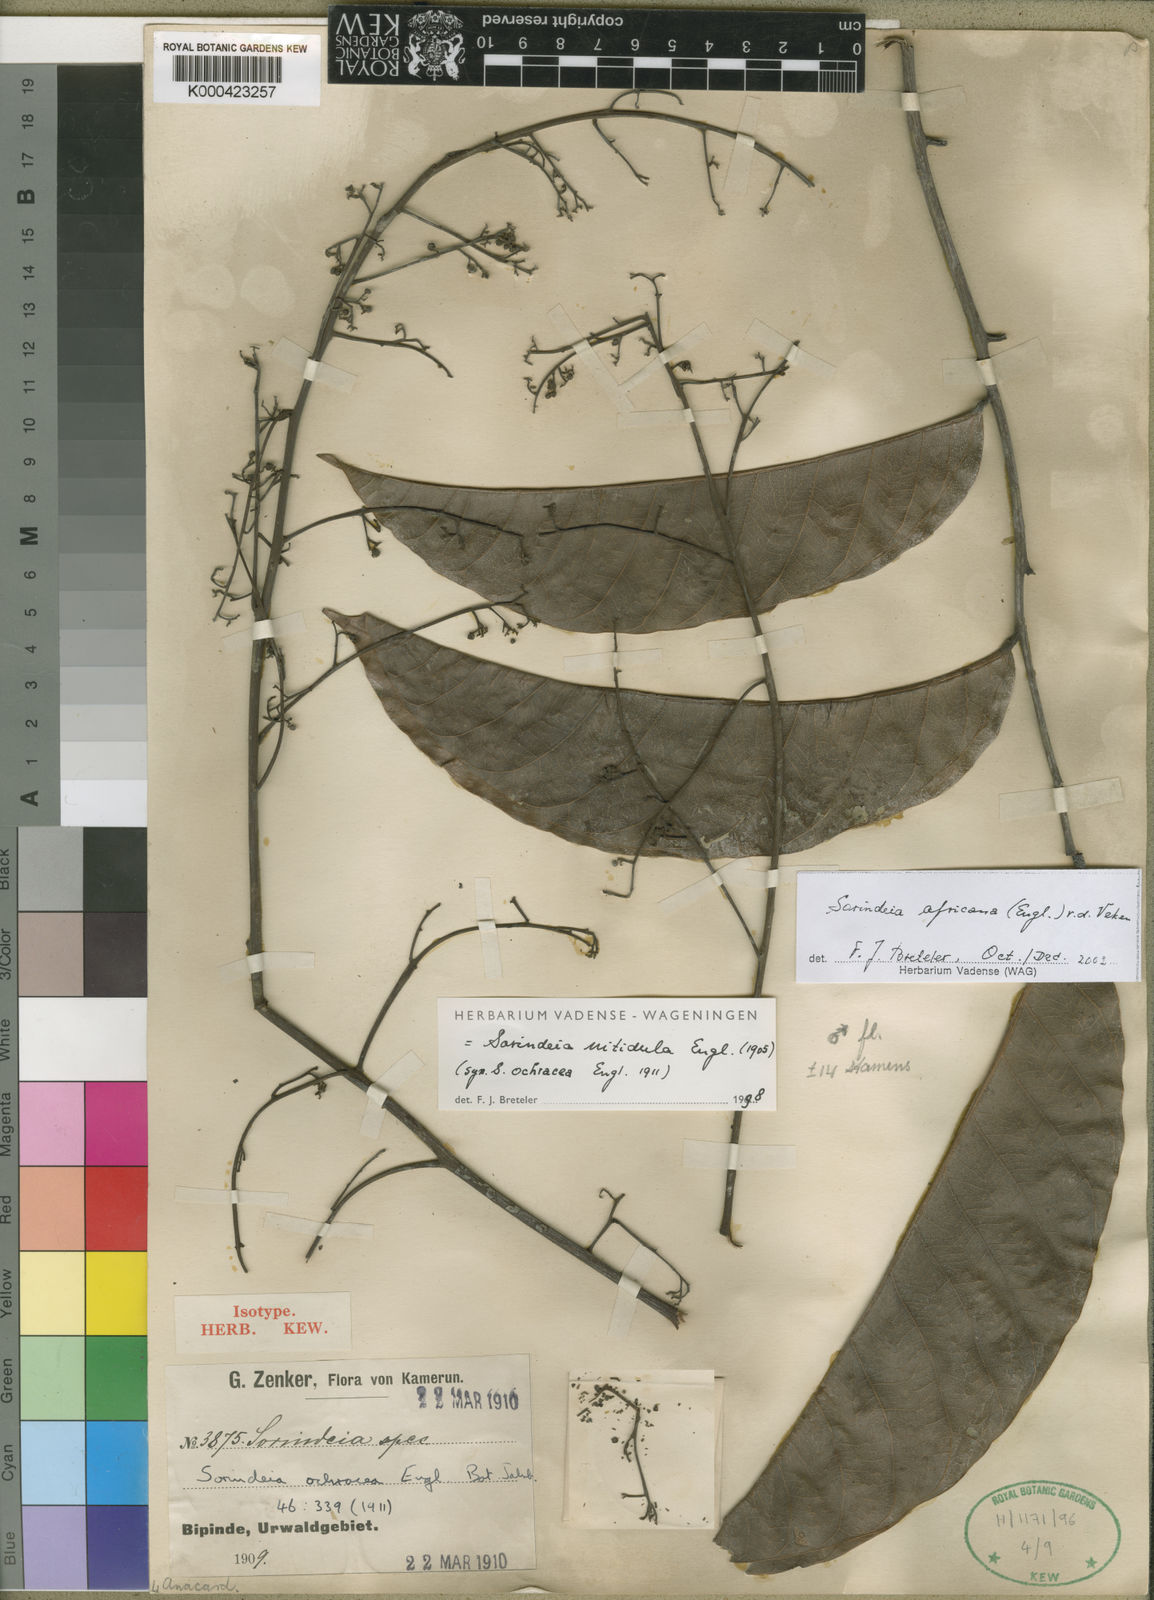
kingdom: Plantae
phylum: Tracheophyta
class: Magnoliopsida
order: Sapindales
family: Anacardiaceae
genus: Sorindeia
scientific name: Sorindeia africana
